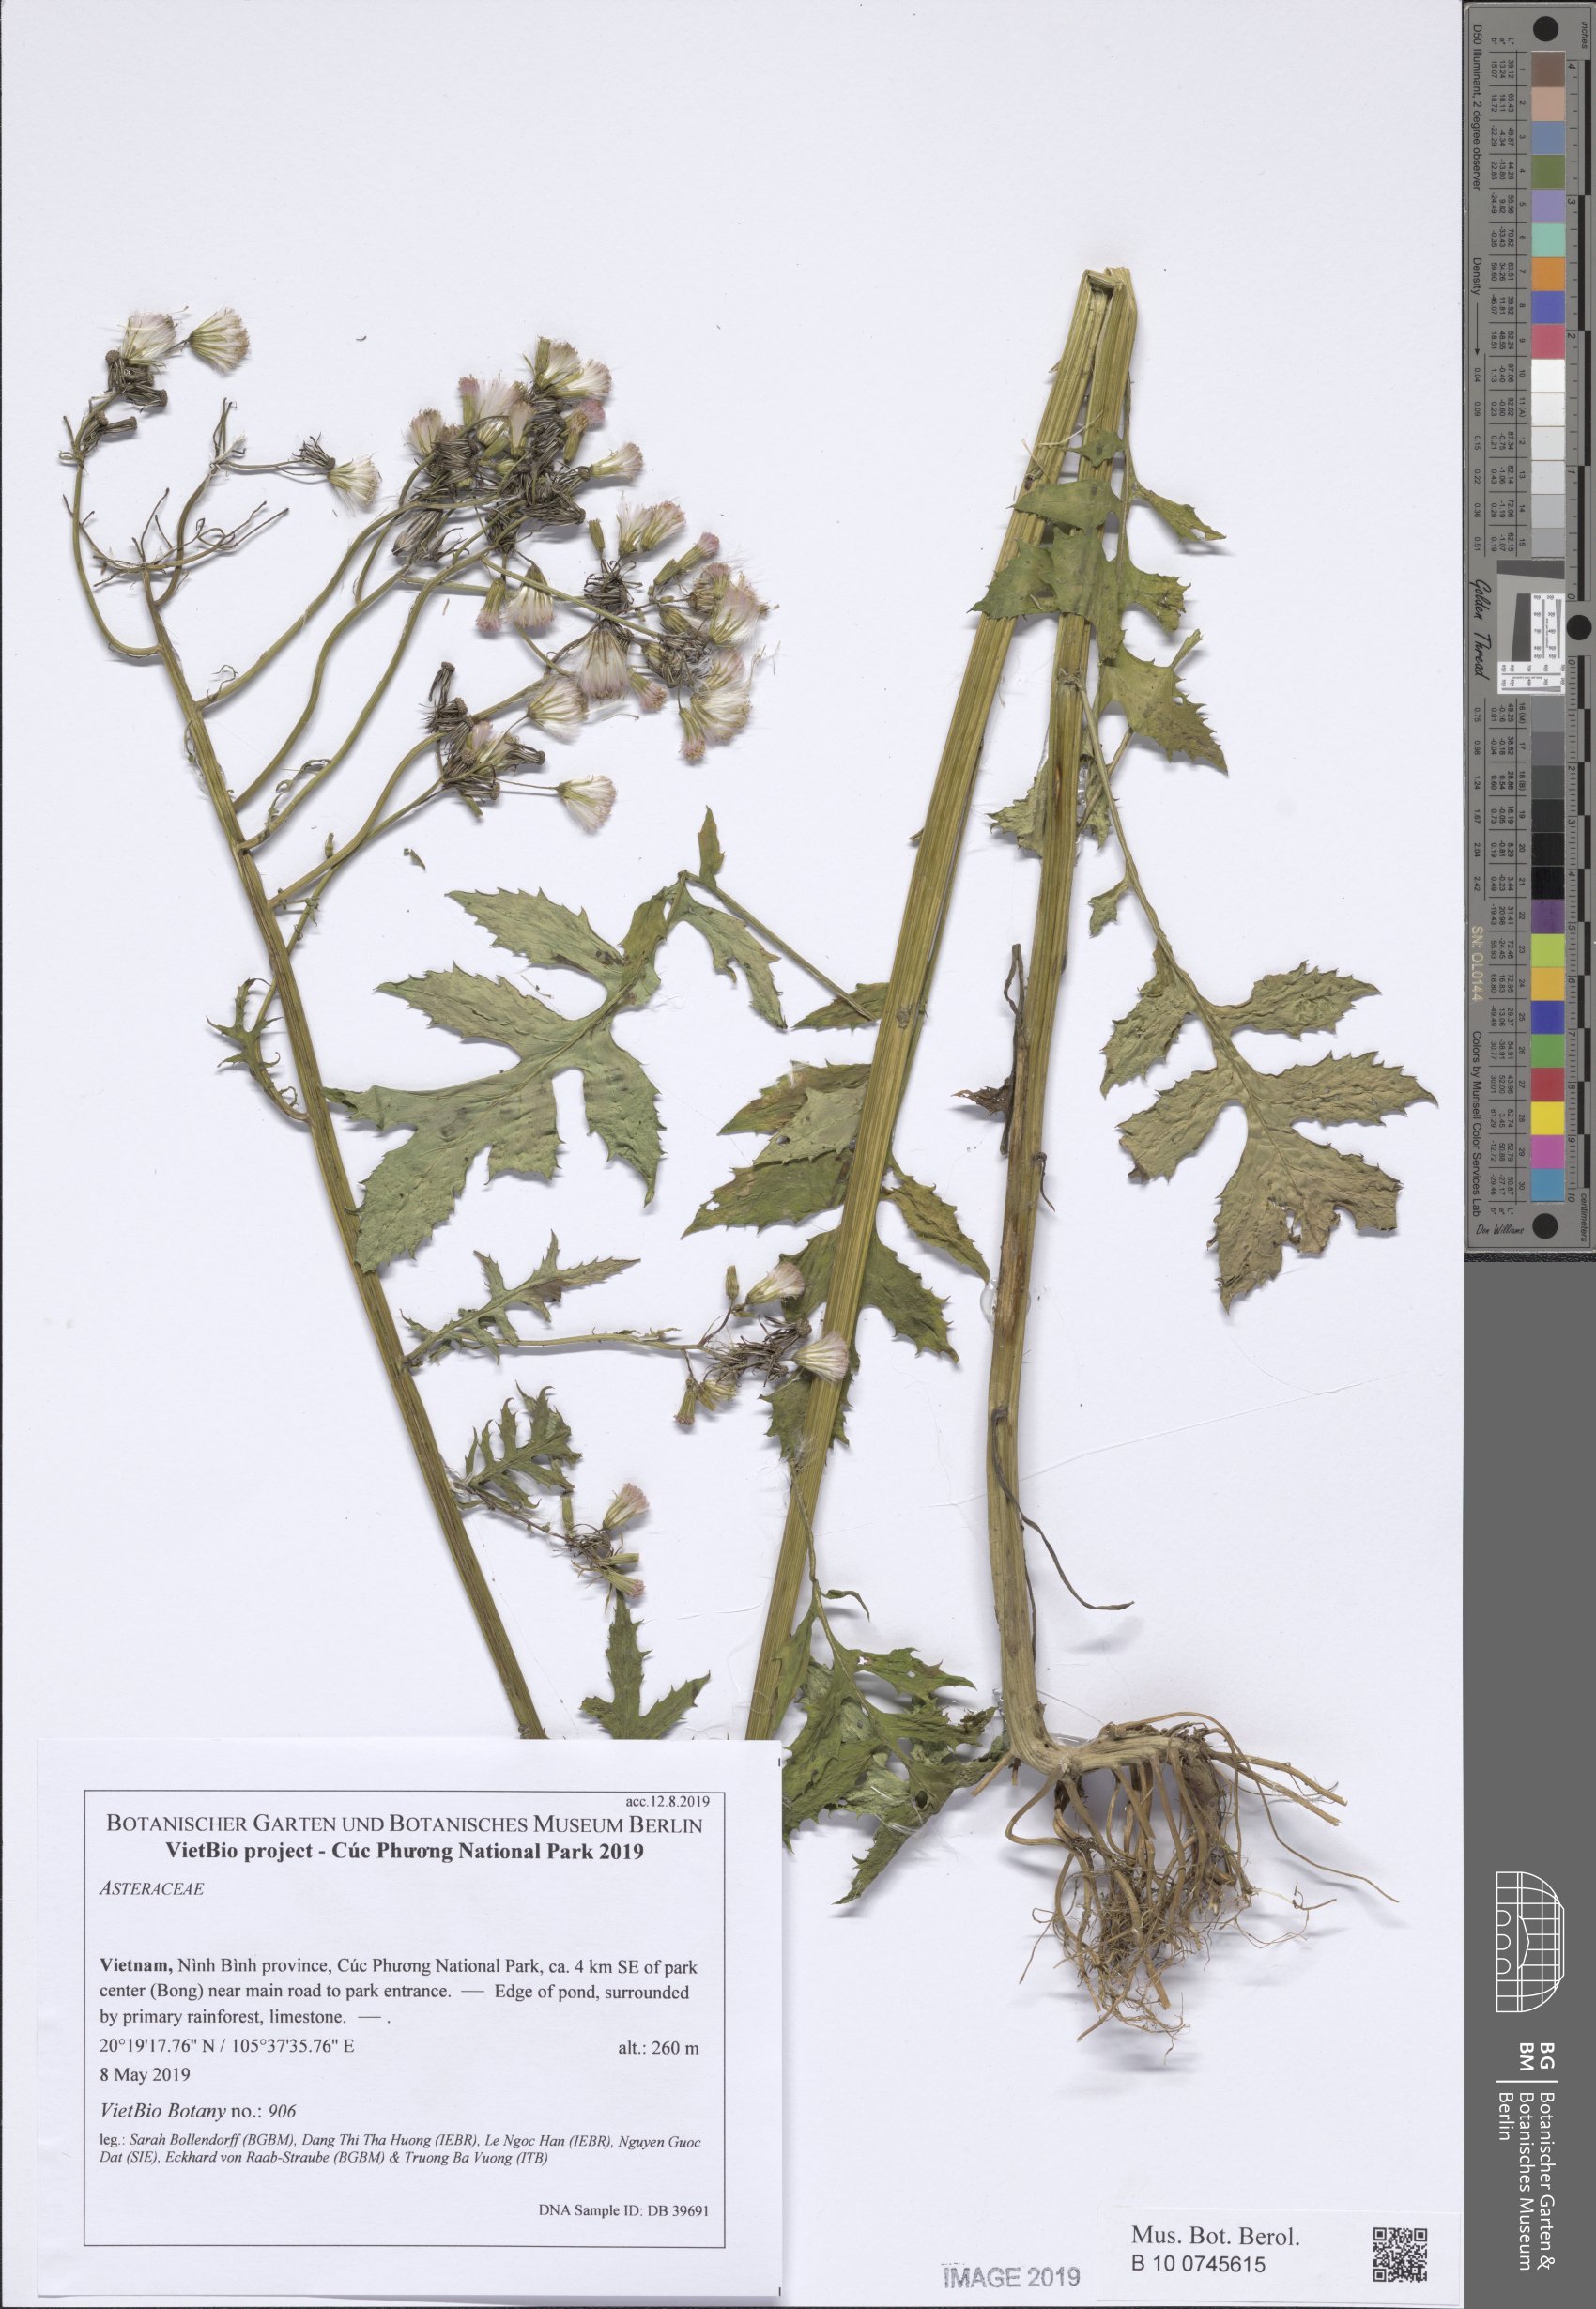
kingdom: Plantae
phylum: Tracheophyta
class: Magnoliopsida
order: Asterales
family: Asteraceae
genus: Blumea
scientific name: Blumea densiflora
